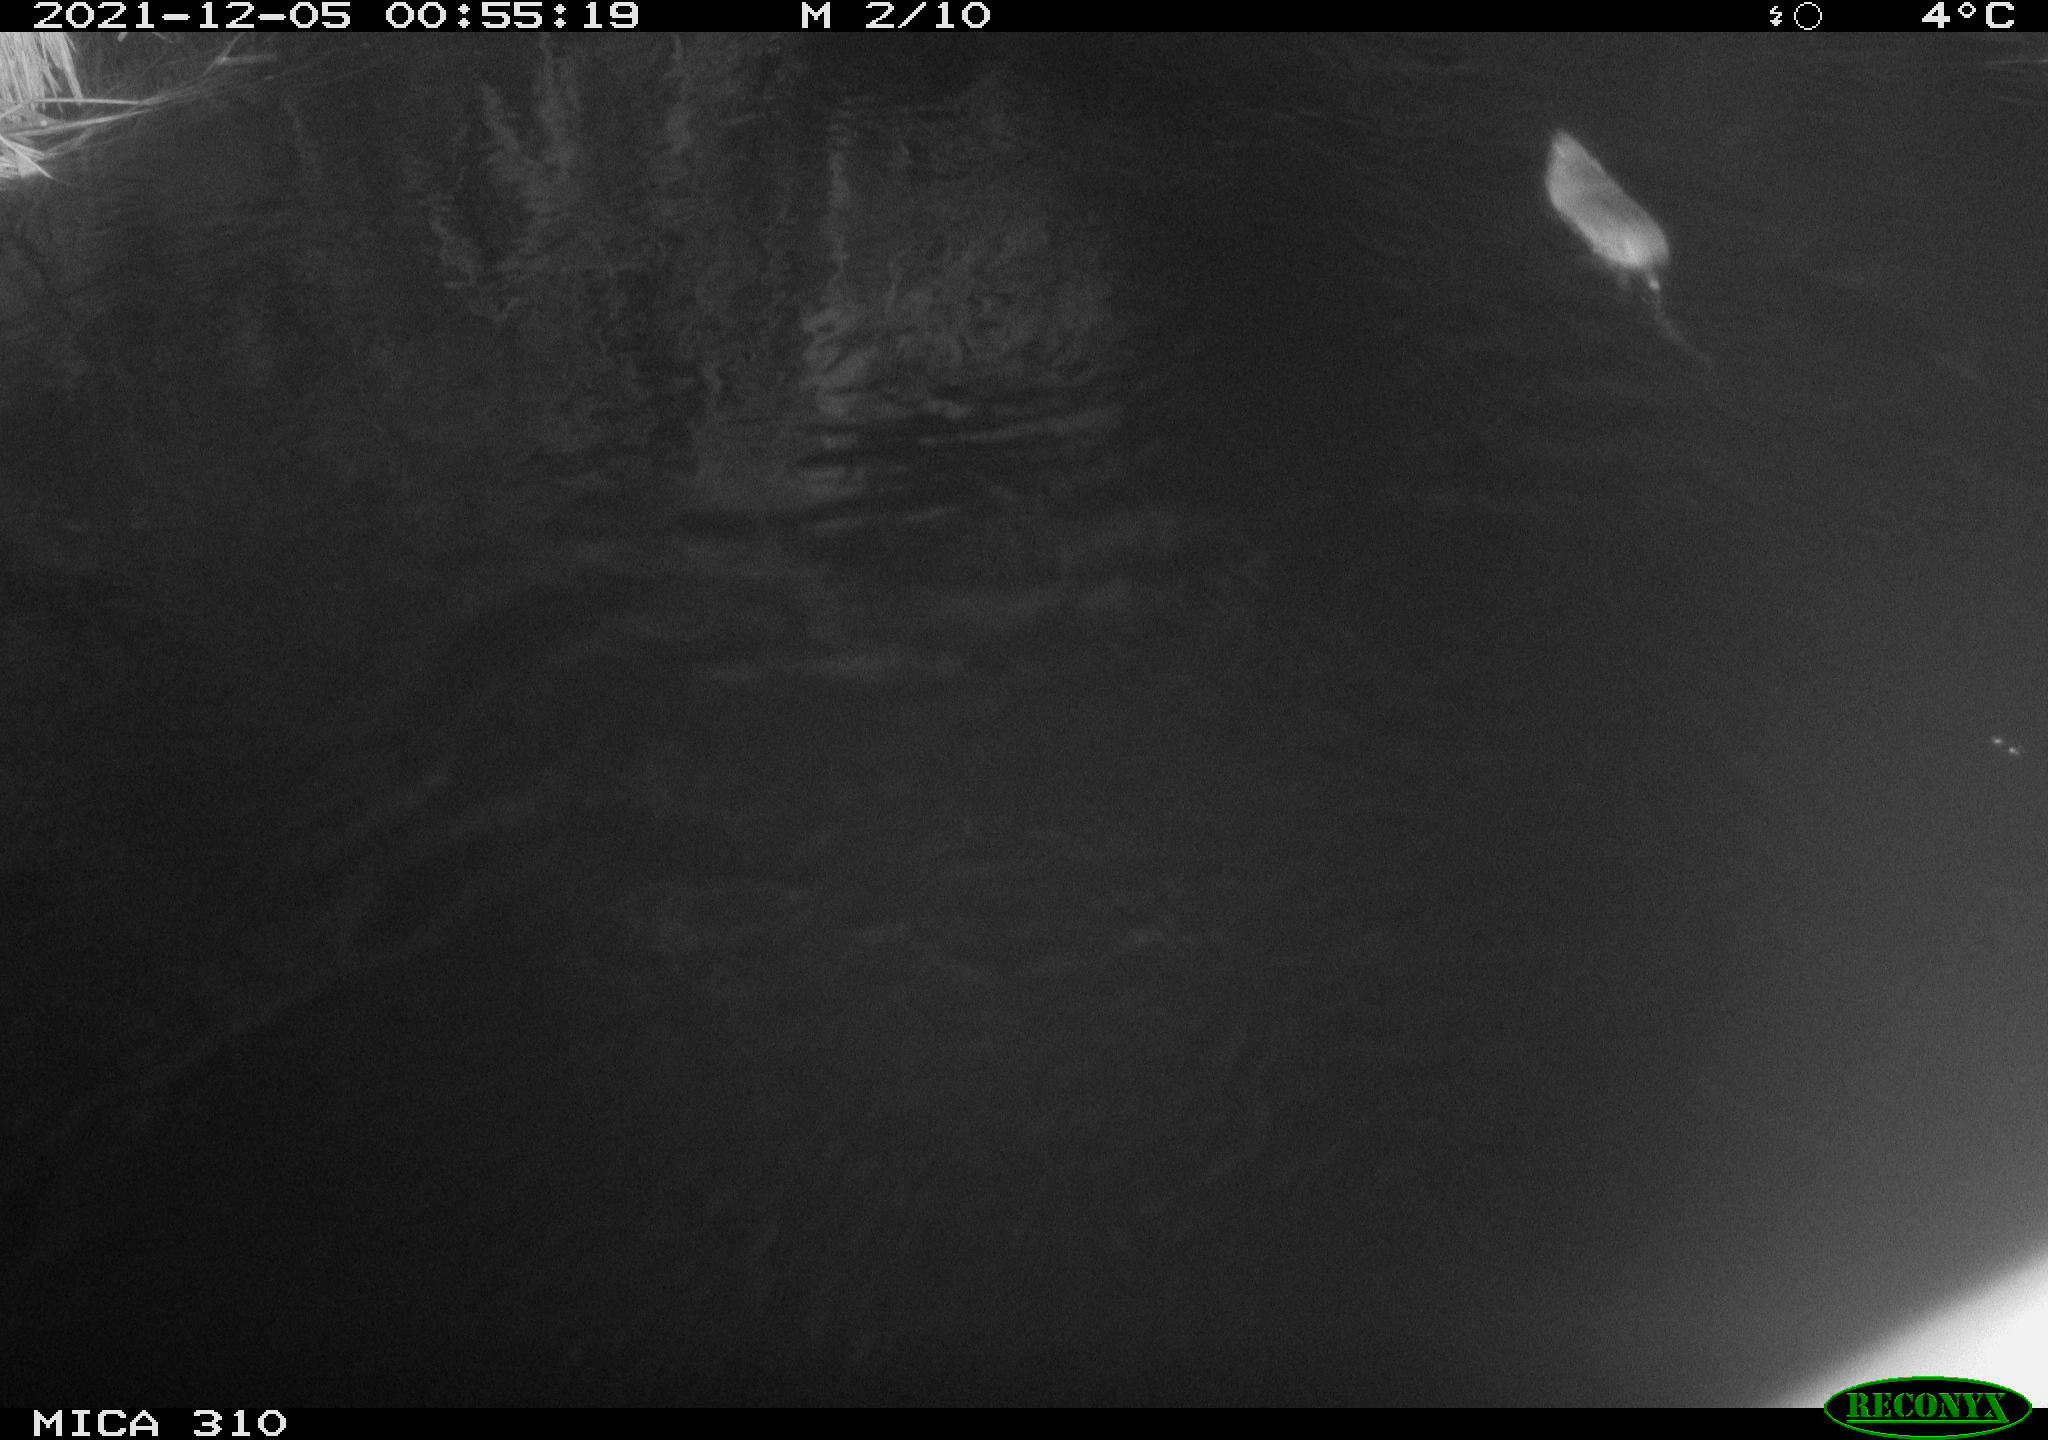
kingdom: Animalia
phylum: Chordata
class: Mammalia
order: Rodentia
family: Muridae
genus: Rattus
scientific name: Rattus norvegicus
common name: Brown rat
